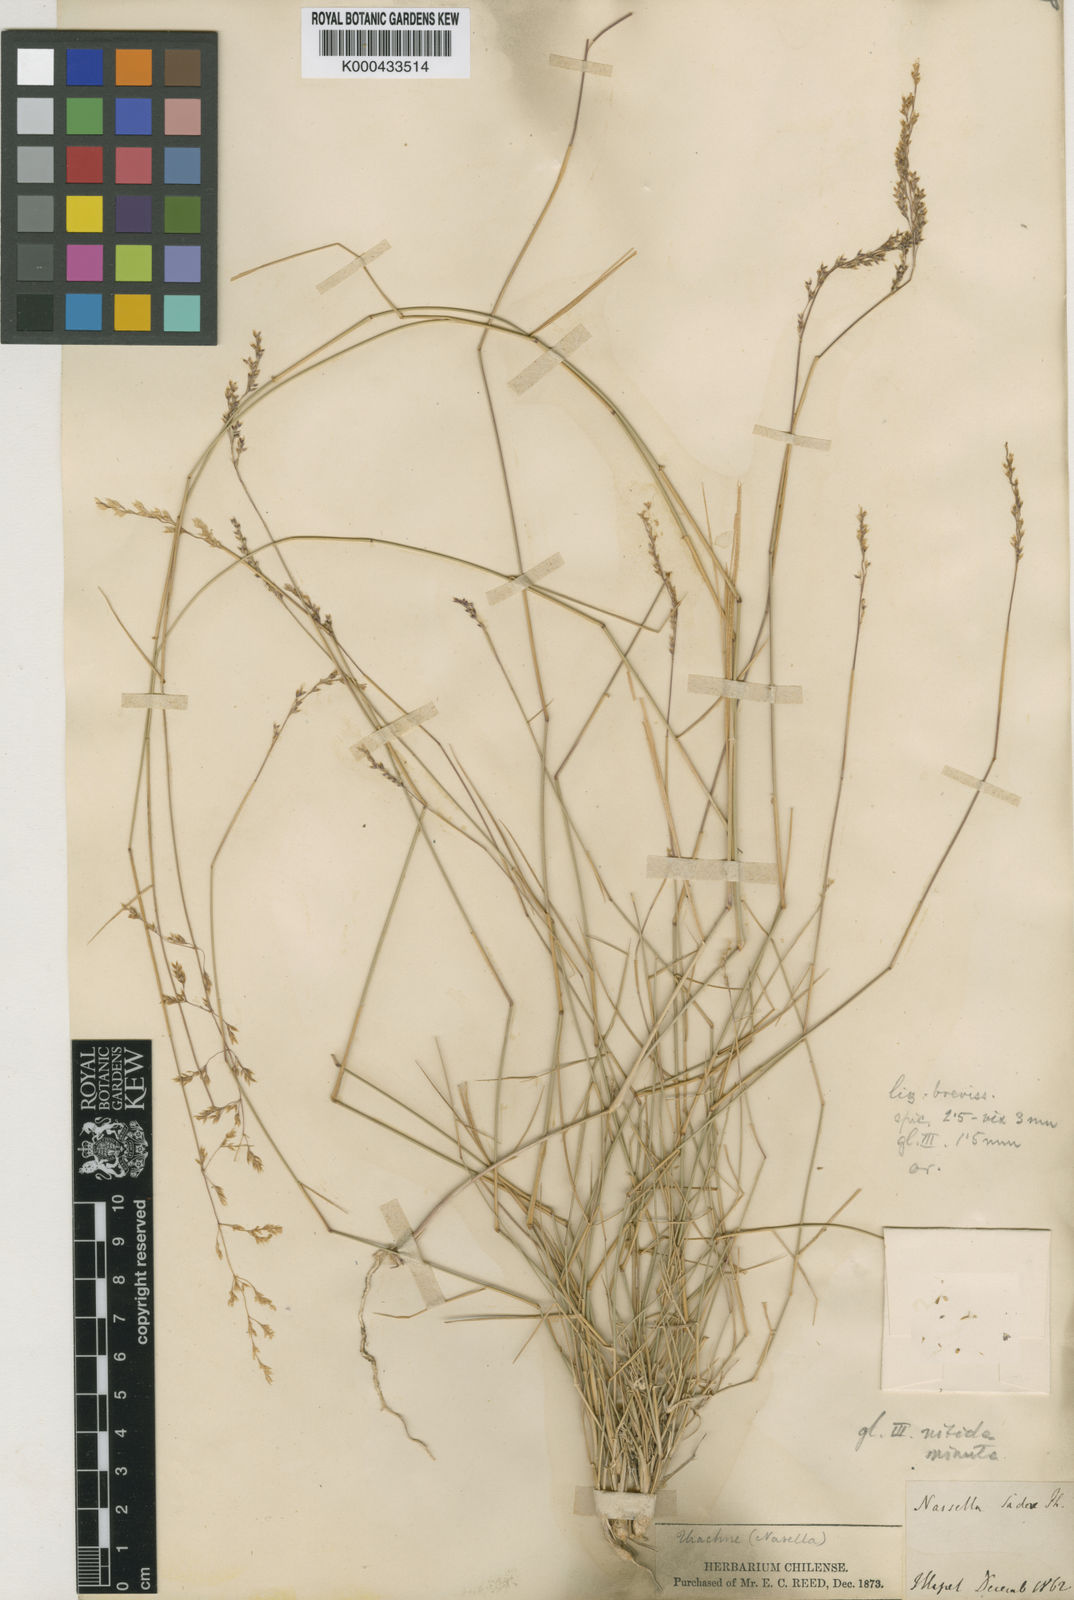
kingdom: Plantae
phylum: Tracheophyta
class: Liliopsida
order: Poales
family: Poaceae
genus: Nassella
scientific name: Nassella chilensis
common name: Chilean needlegrass
